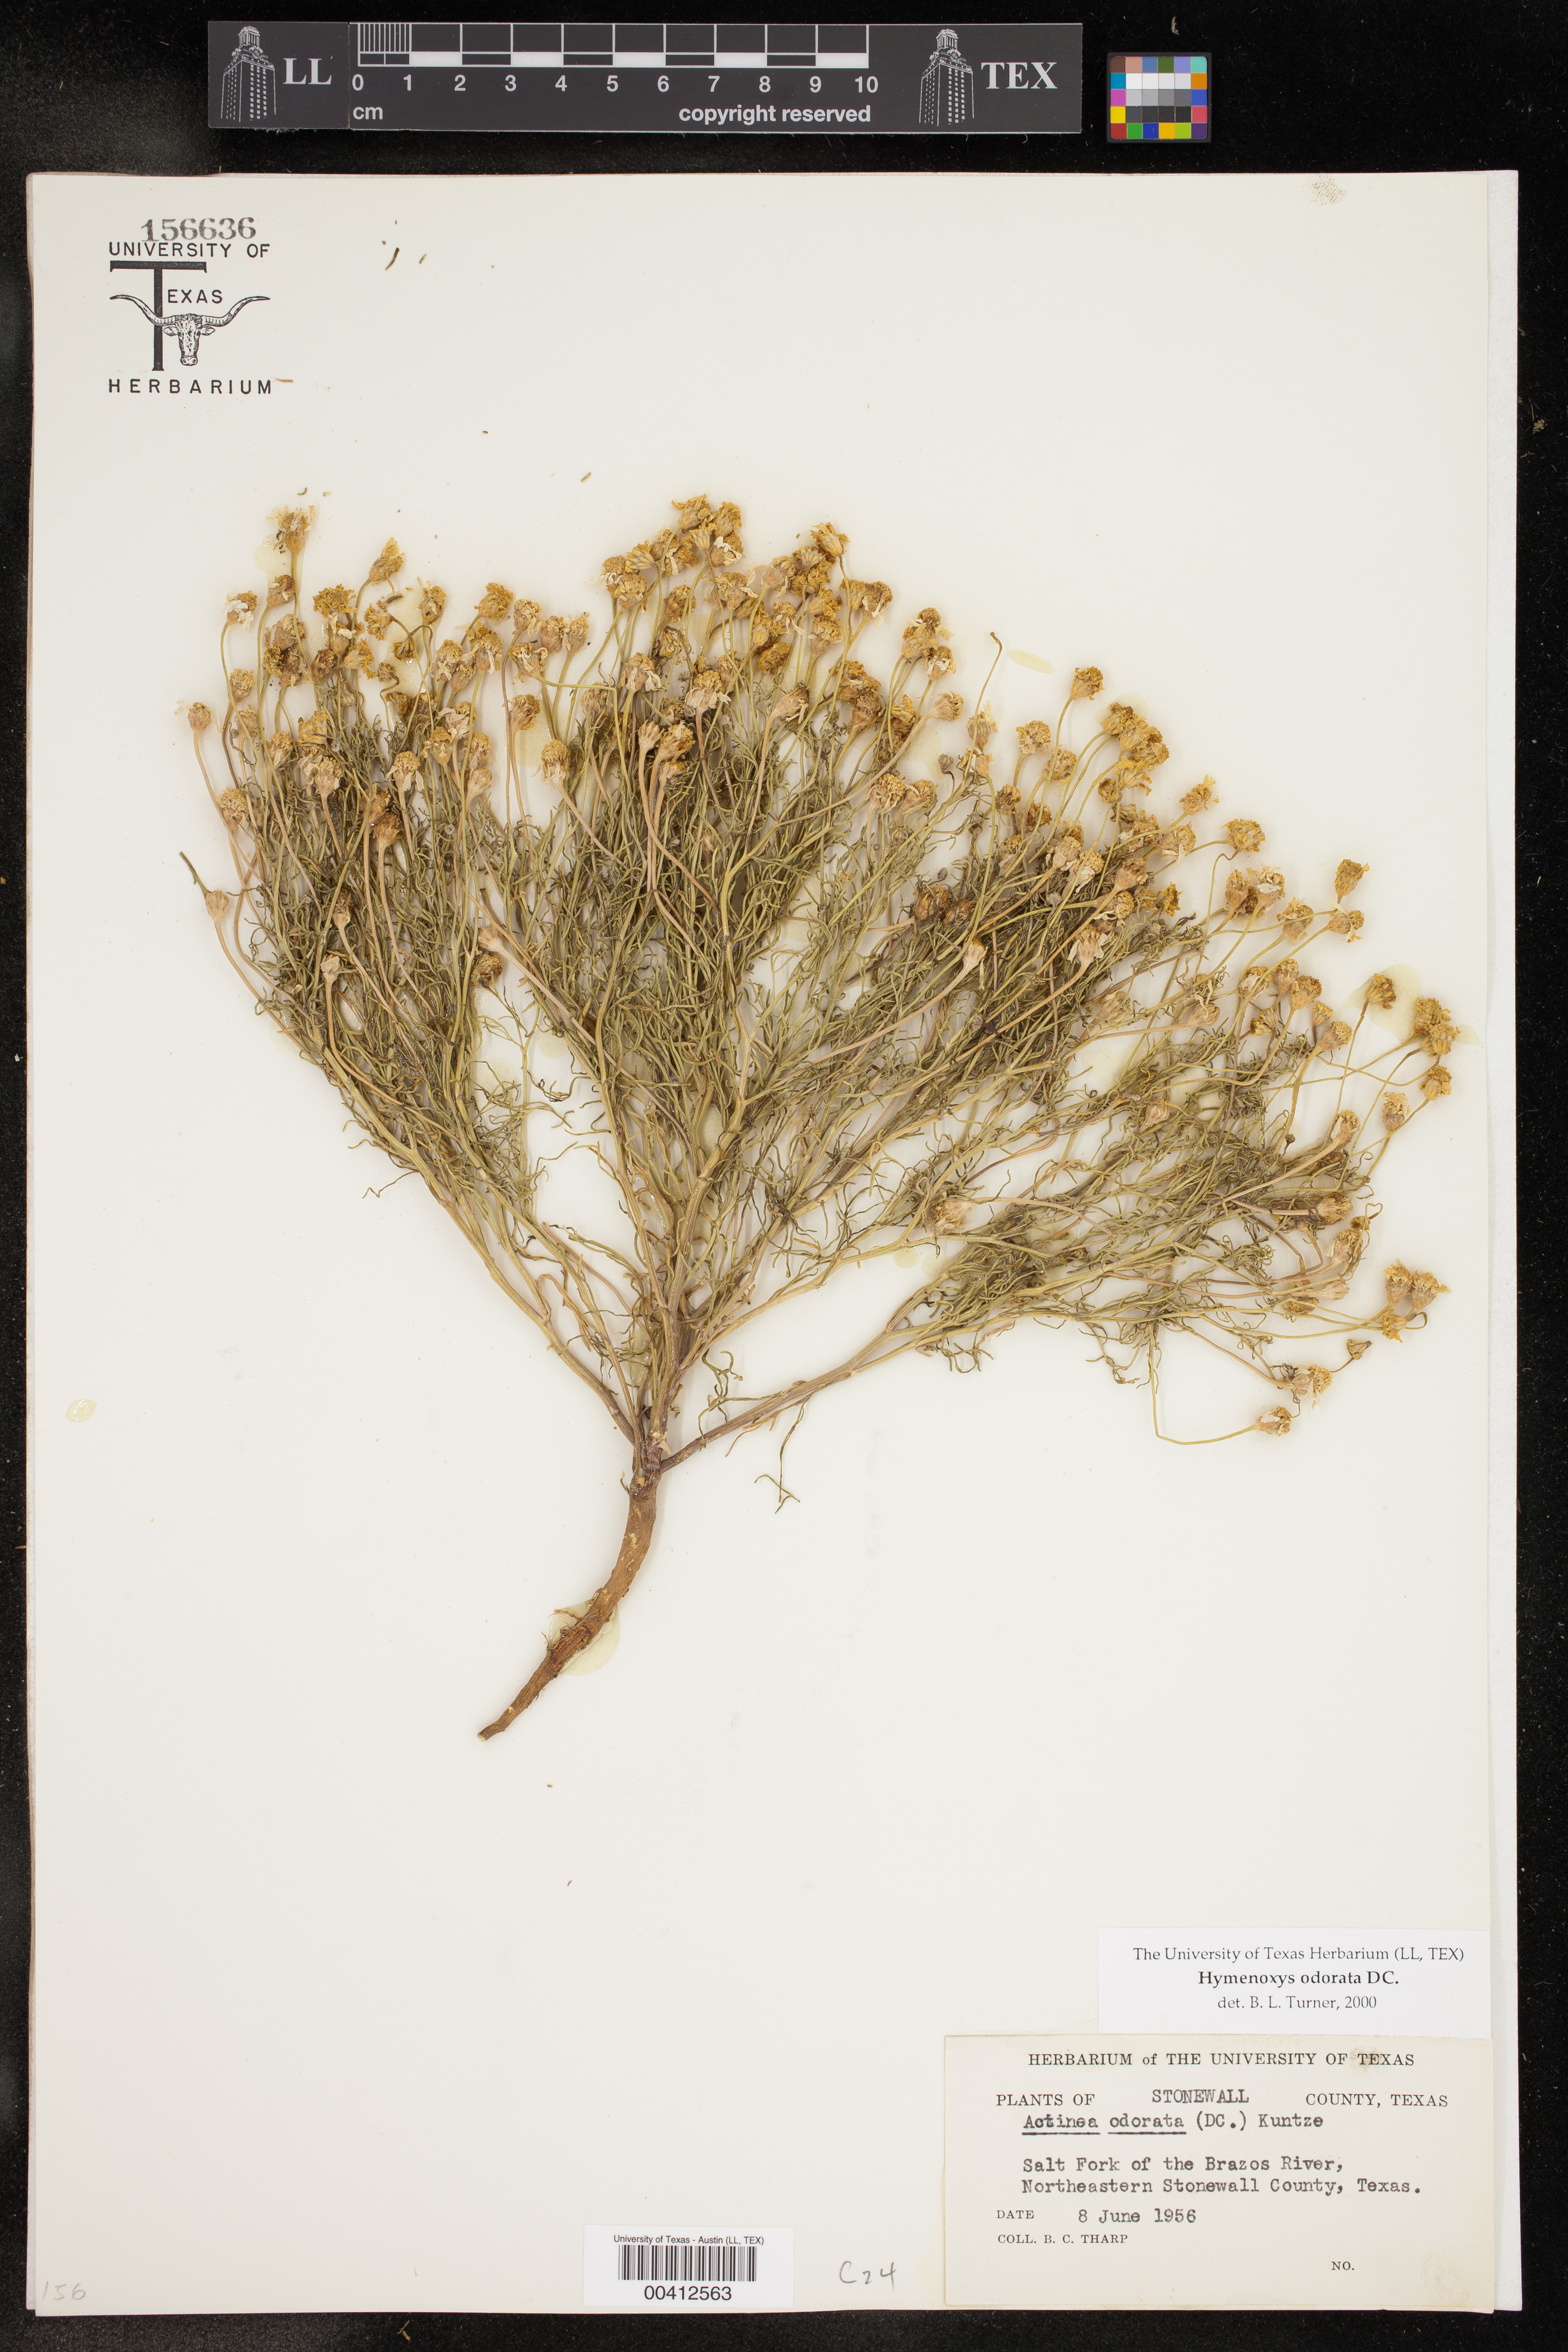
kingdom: Plantae
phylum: Tracheophyta
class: Magnoliopsida
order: Asterales
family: Asteraceae
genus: Hymenoxys
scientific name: Hymenoxys odorata
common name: Bitter rubberweed
